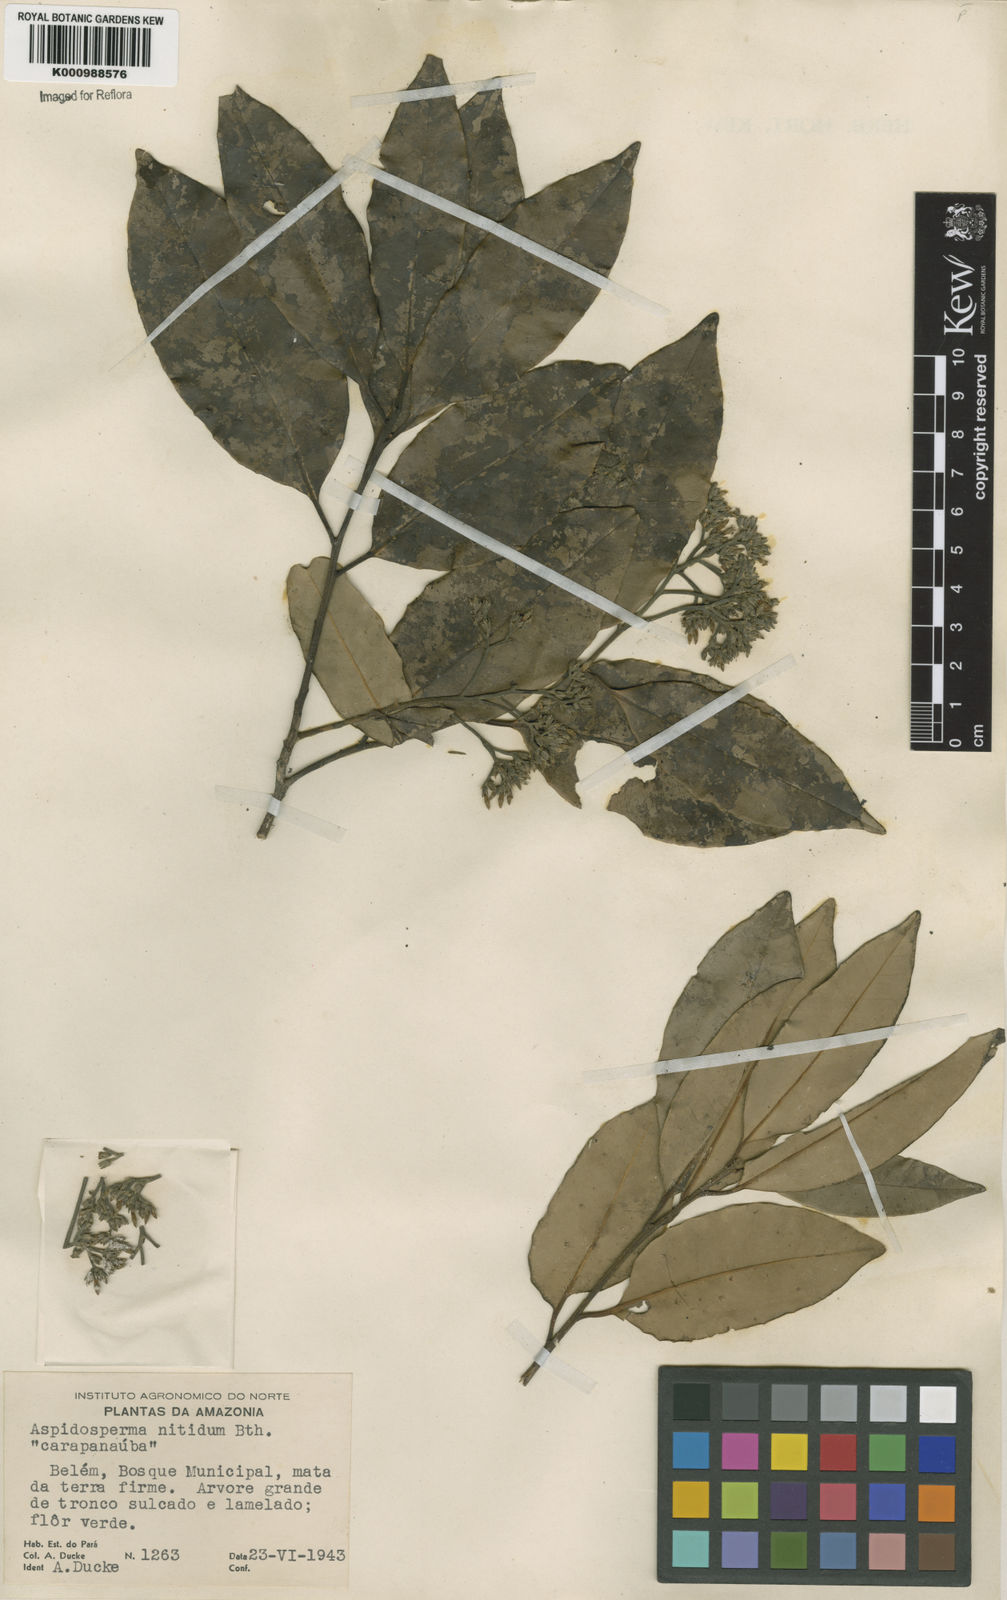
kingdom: Plantae
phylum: Tracheophyta
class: Magnoliopsida
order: Gentianales
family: Apocynaceae
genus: Aspidosperma
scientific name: Aspidosperma
